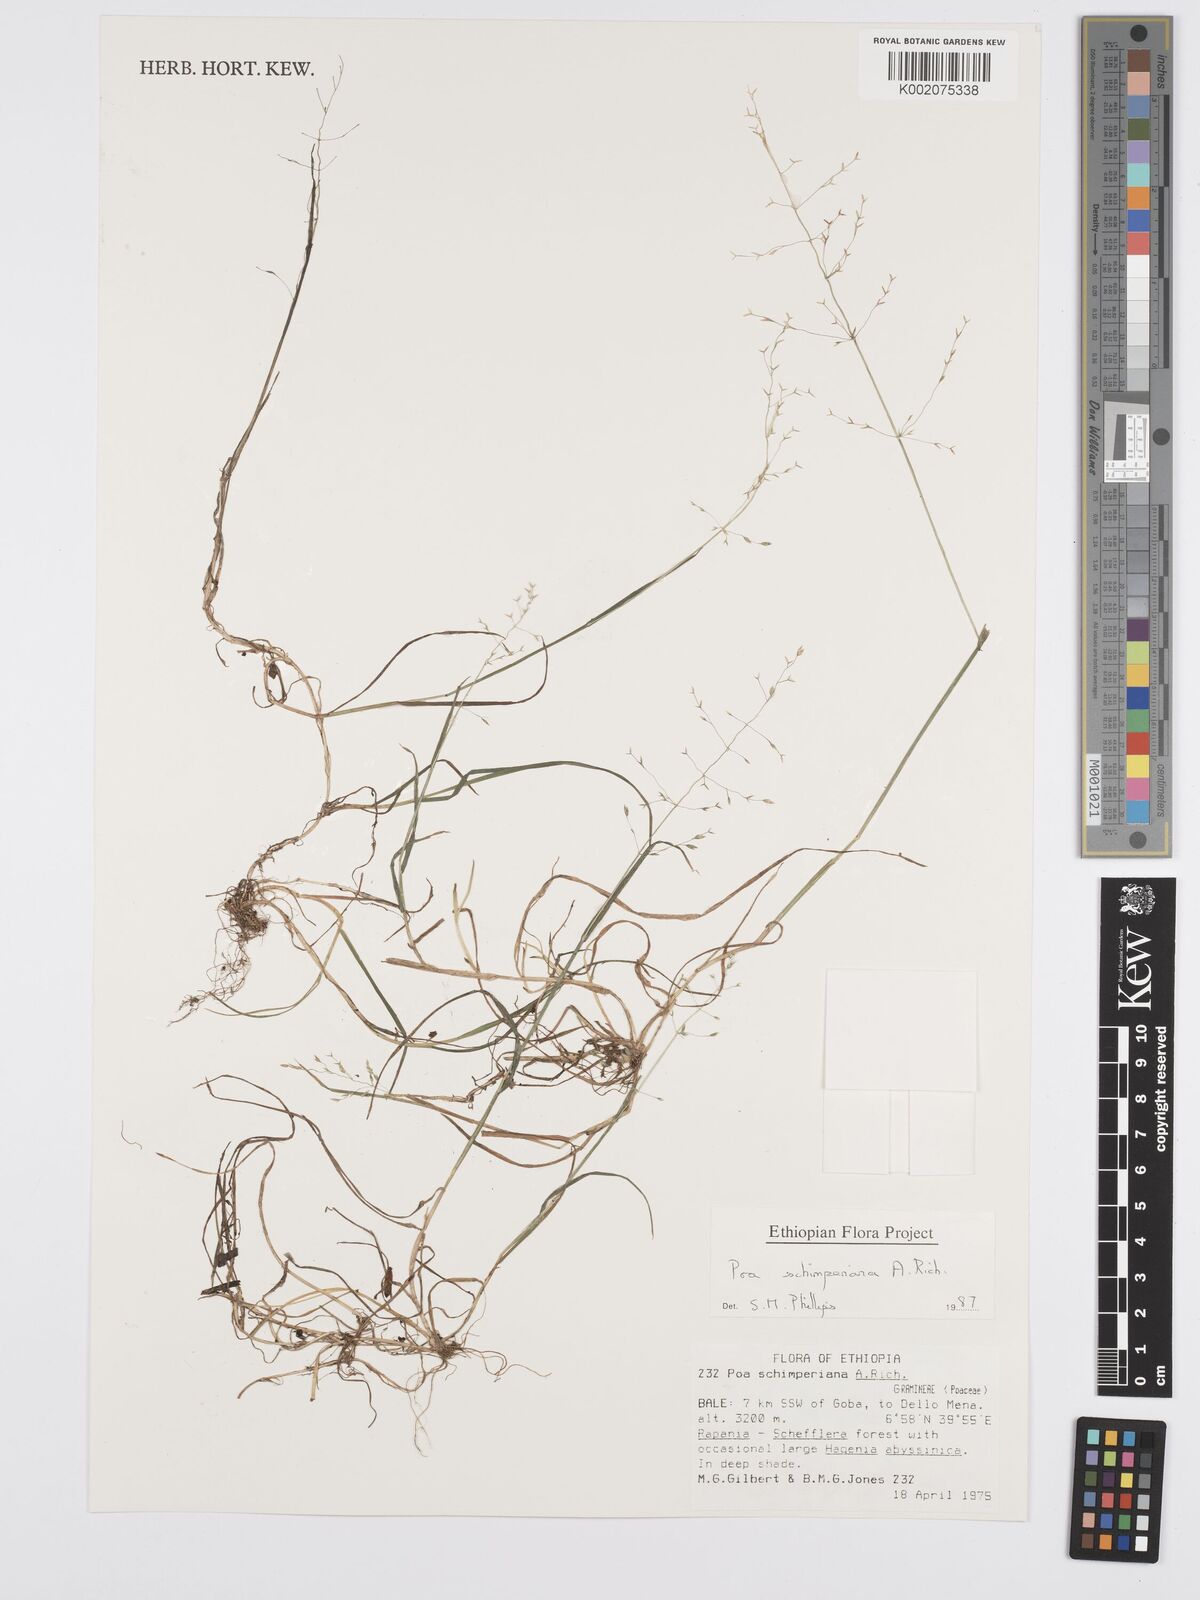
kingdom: Plantae
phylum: Tracheophyta
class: Liliopsida
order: Poales
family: Poaceae
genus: Poa
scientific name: Poa schimperiana
